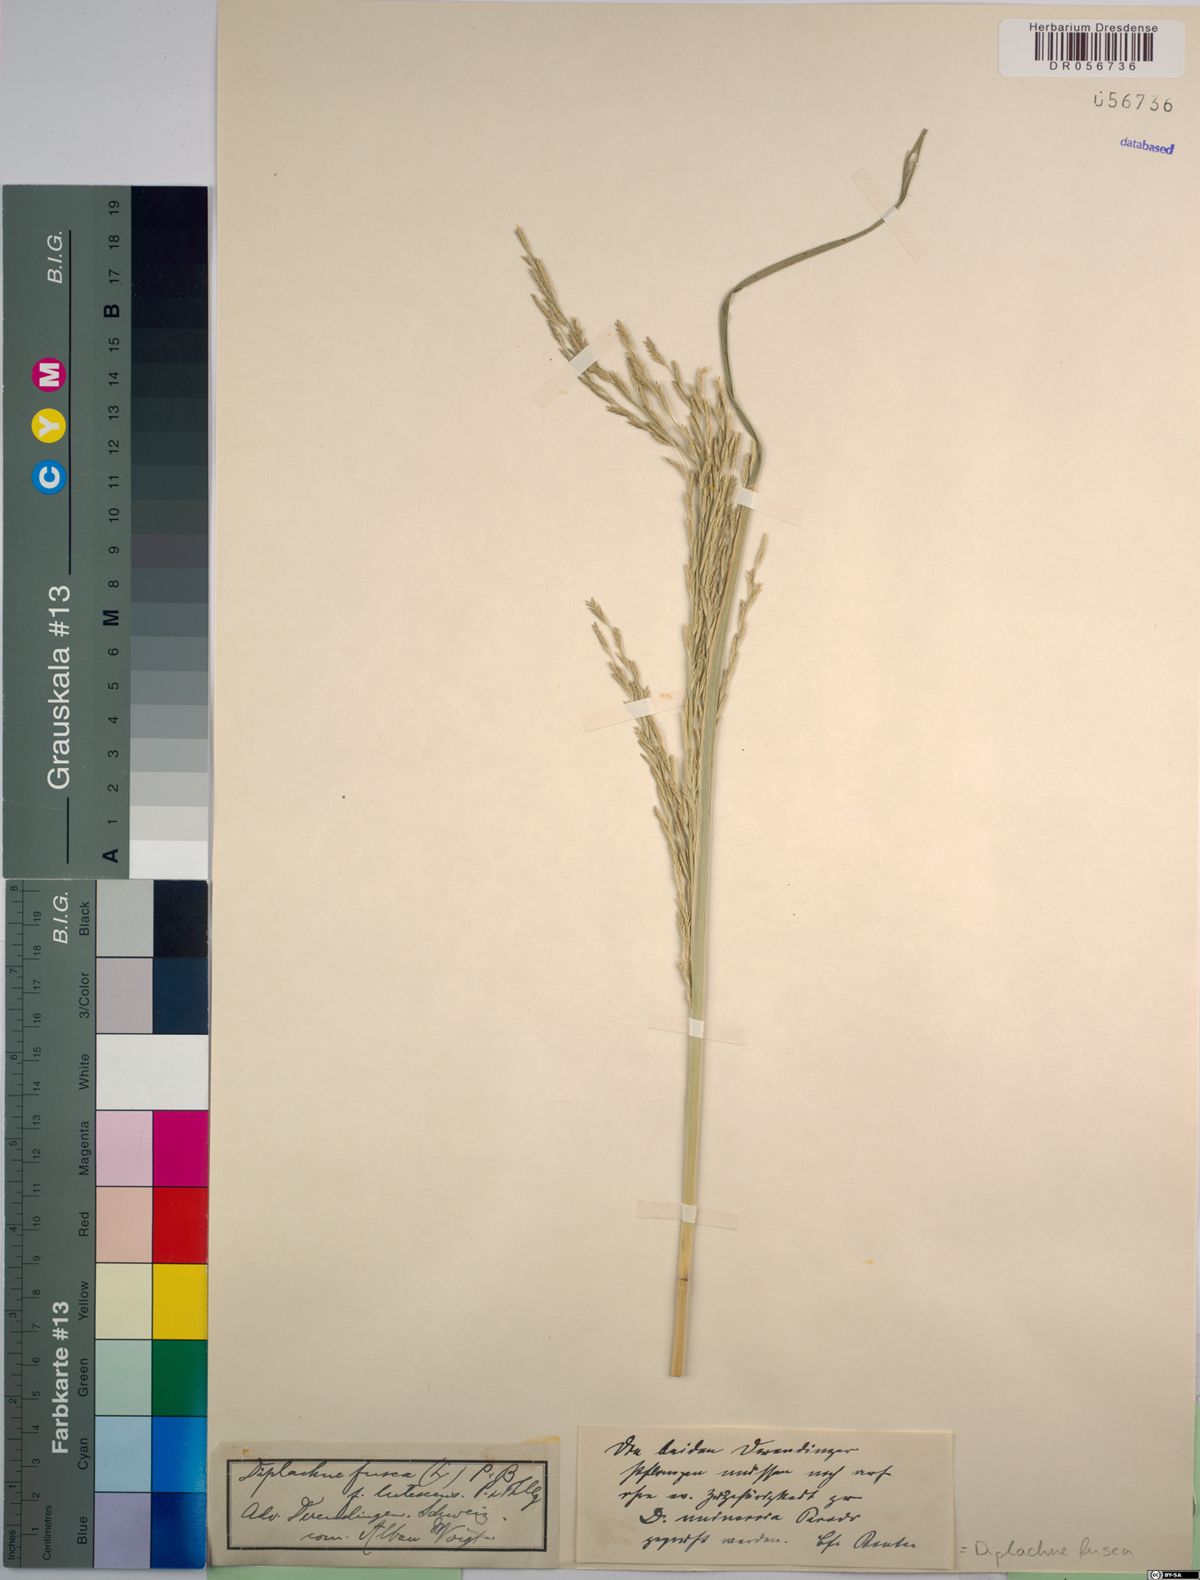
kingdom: Plantae
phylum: Tracheophyta
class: Liliopsida
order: Poales
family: Poaceae
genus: Diplachne
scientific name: Diplachne fusca
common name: Brown beetle grass
